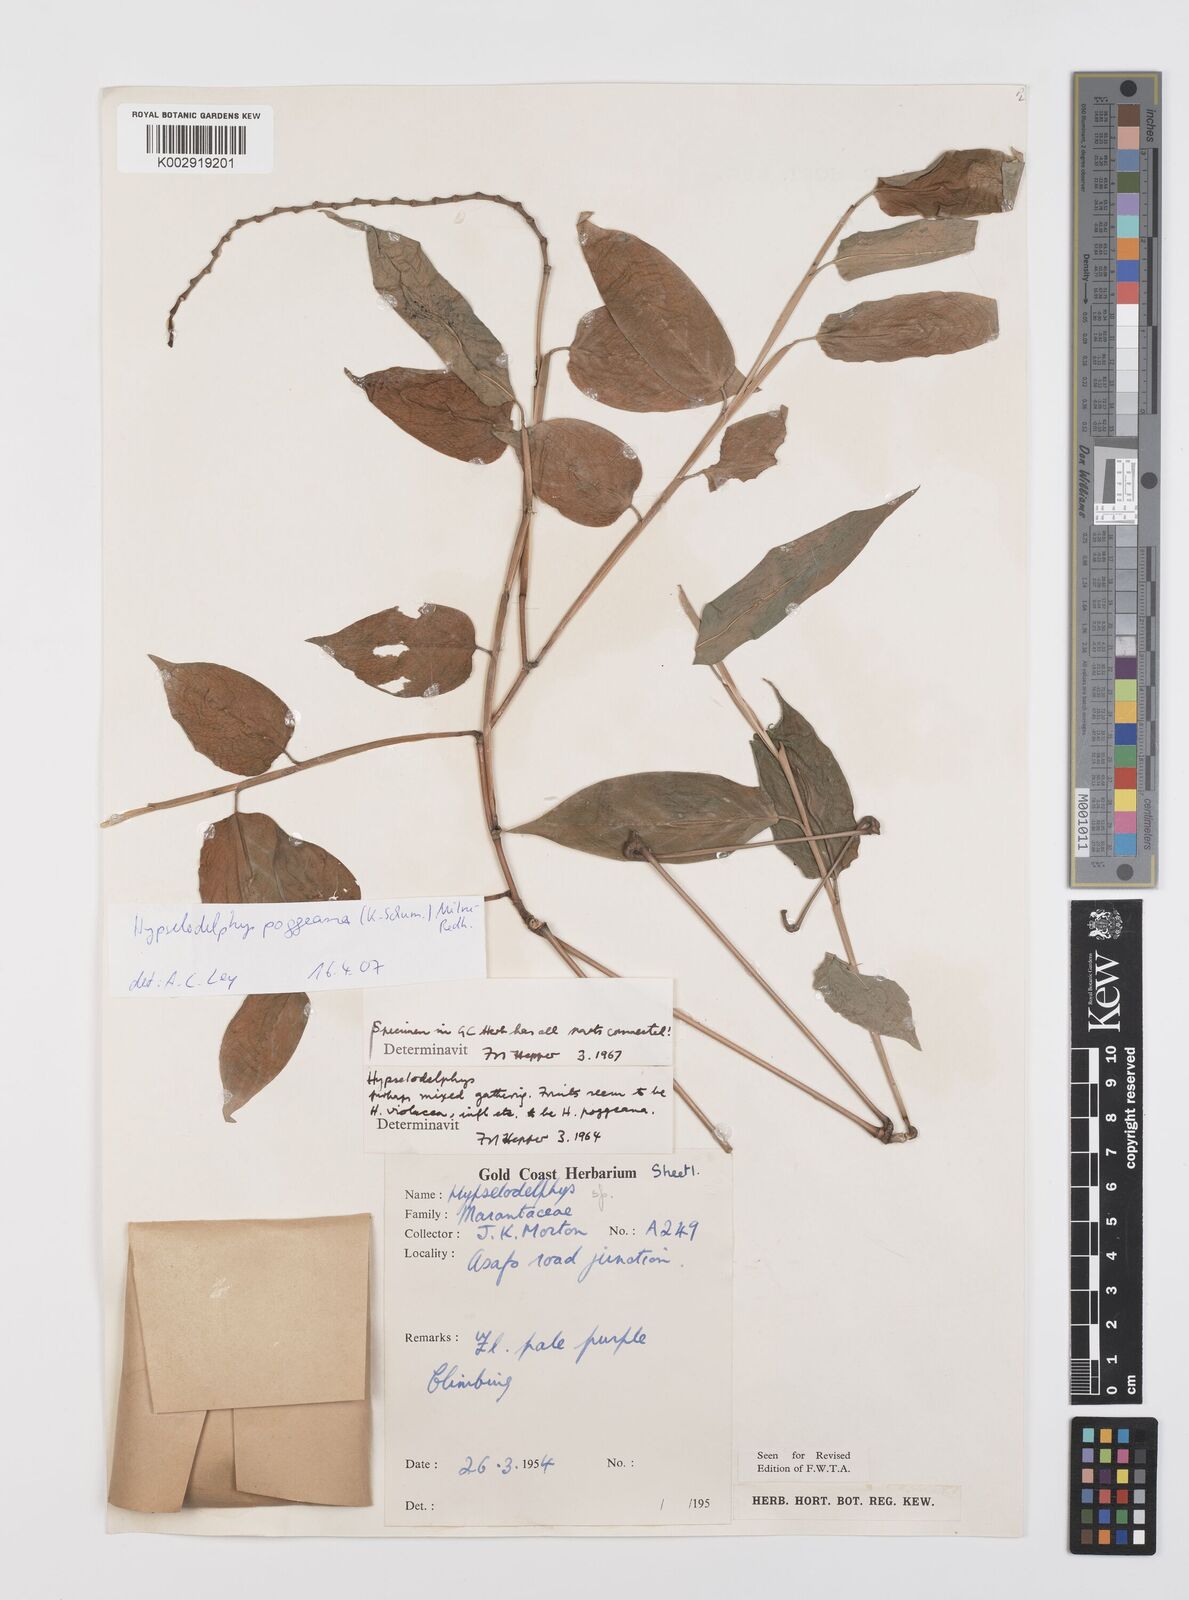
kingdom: Plantae
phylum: Tracheophyta
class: Liliopsida
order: Zingiberales
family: Marantaceae
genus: Hypselodelphys
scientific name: Hypselodelphys poggeana
